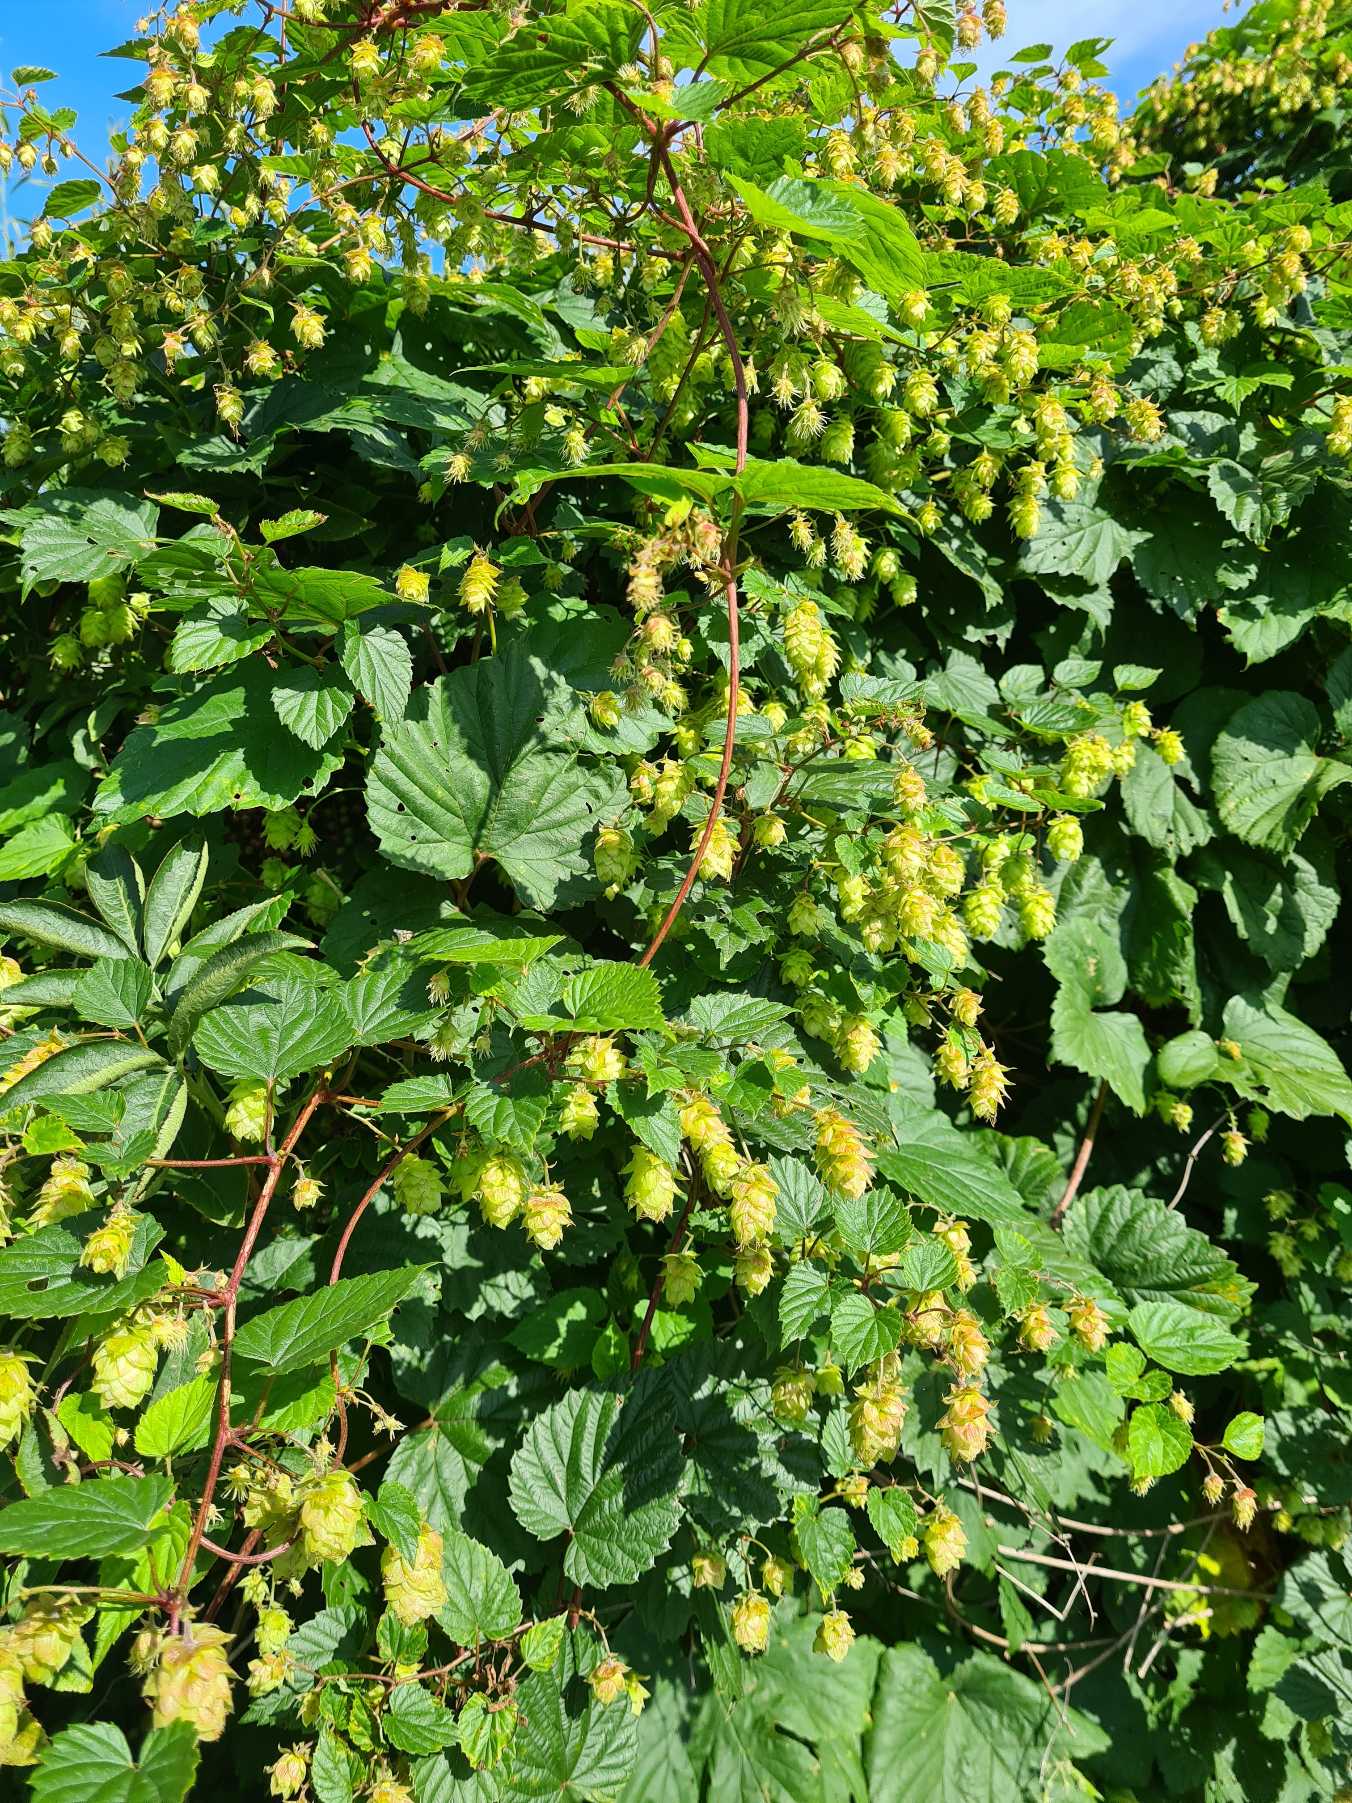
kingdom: Plantae
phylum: Tracheophyta
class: Magnoliopsida
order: Rosales
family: Cannabaceae
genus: Humulus
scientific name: Humulus lupulus
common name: Humle
